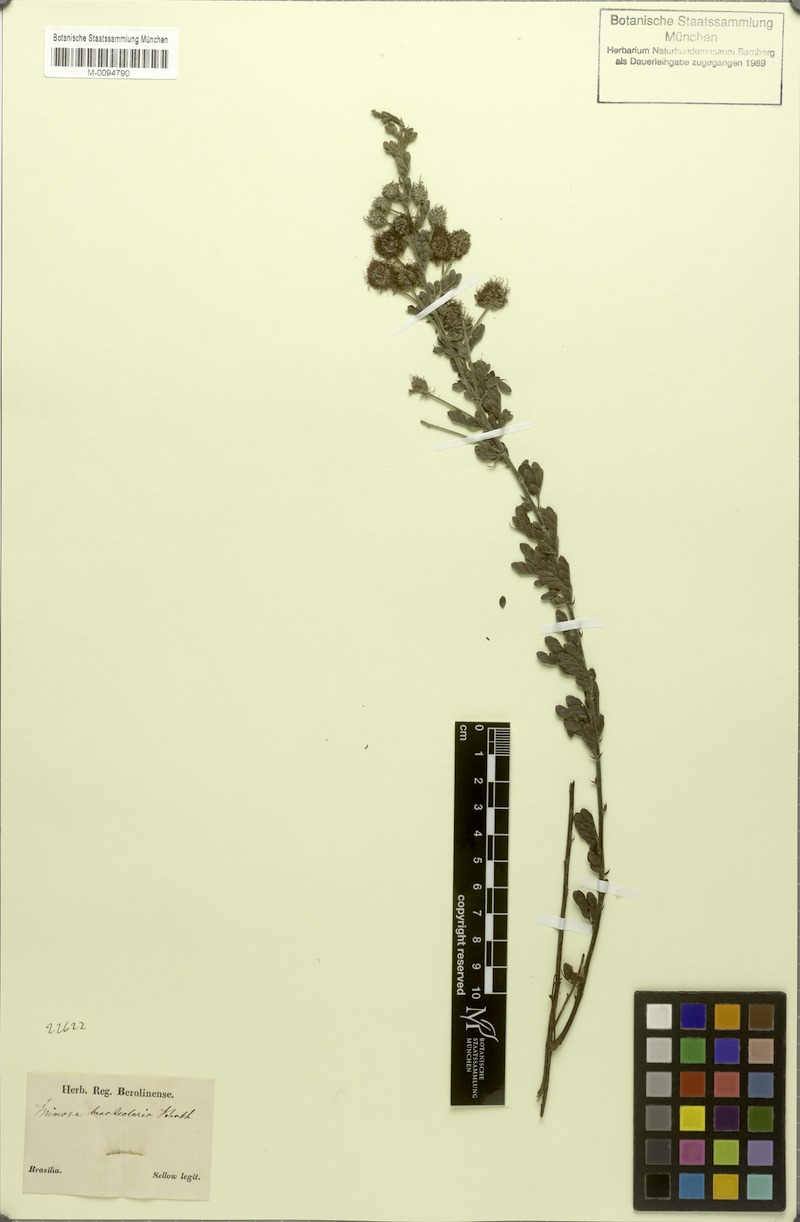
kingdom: Plantae
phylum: Tracheophyta
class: Magnoliopsida
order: Fabales
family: Fabaceae
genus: Mimosa
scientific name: Mimosa bracteolaris
